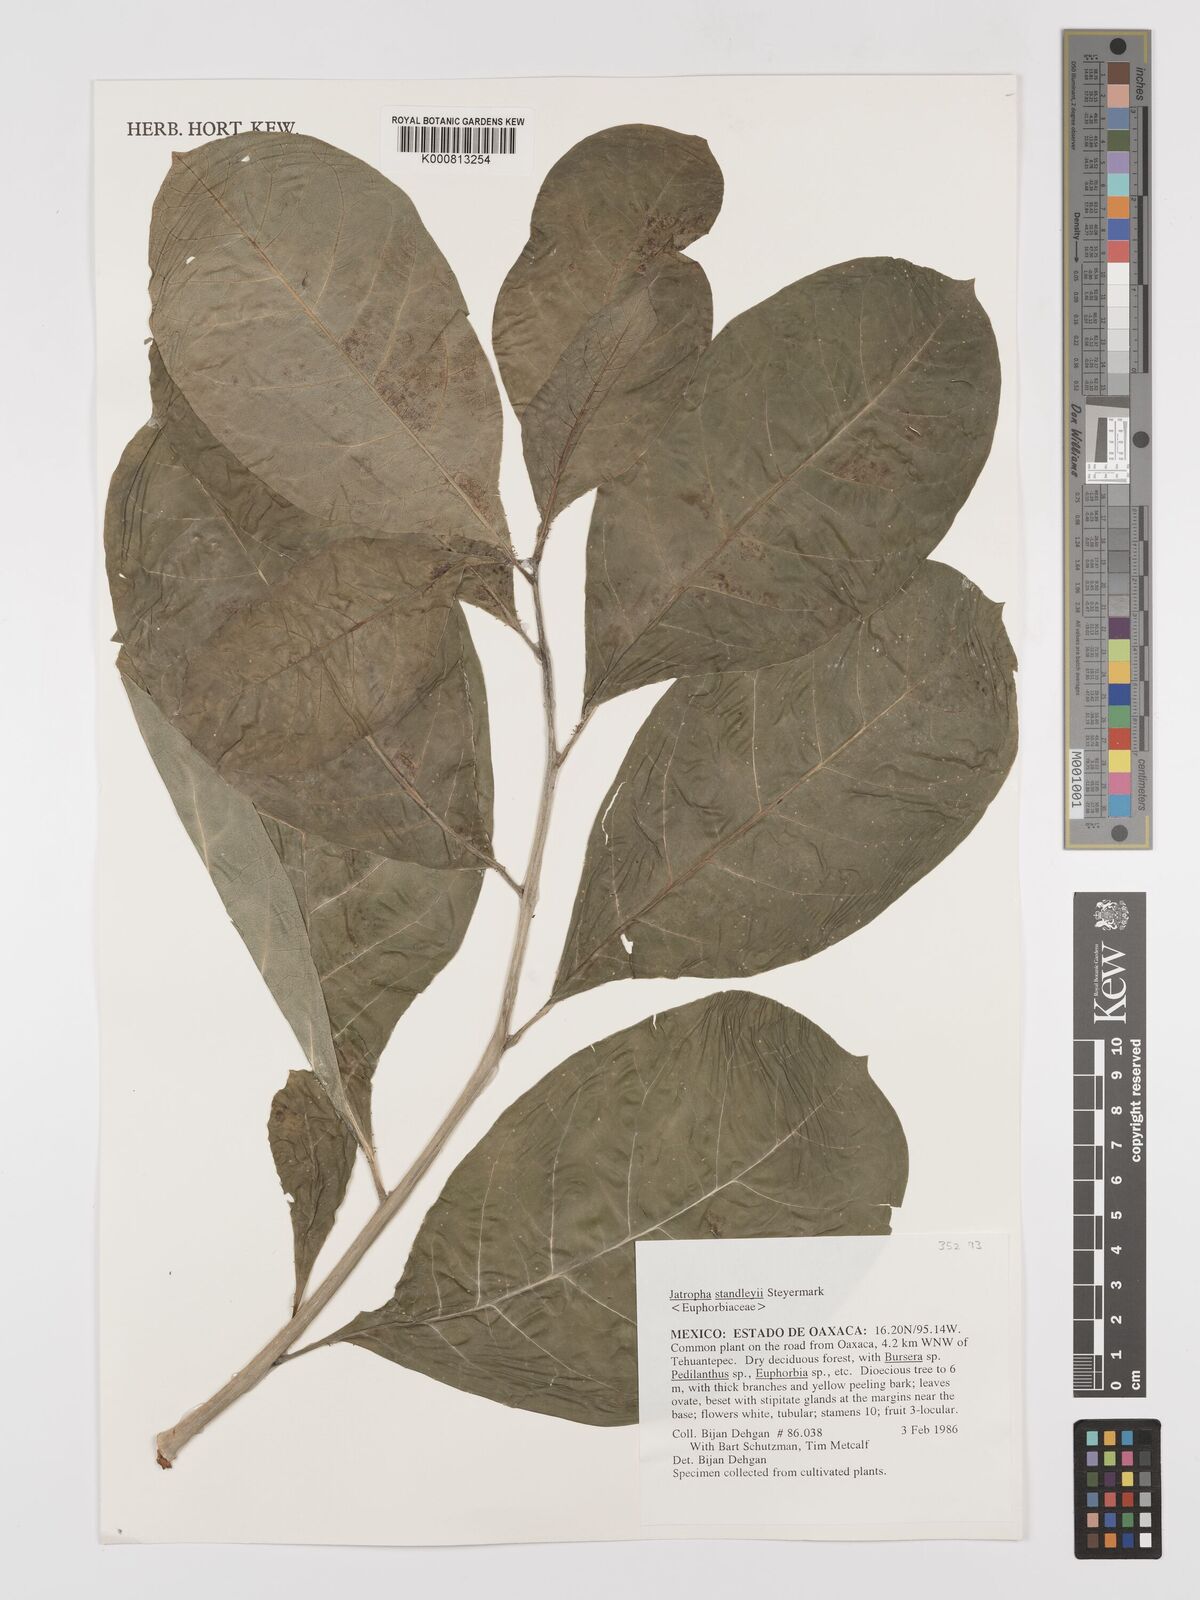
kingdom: Plantae
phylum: Tracheophyta
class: Magnoliopsida
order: Malpighiales
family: Euphorbiaceae
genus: Jatropha
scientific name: Jatropha standleyi
